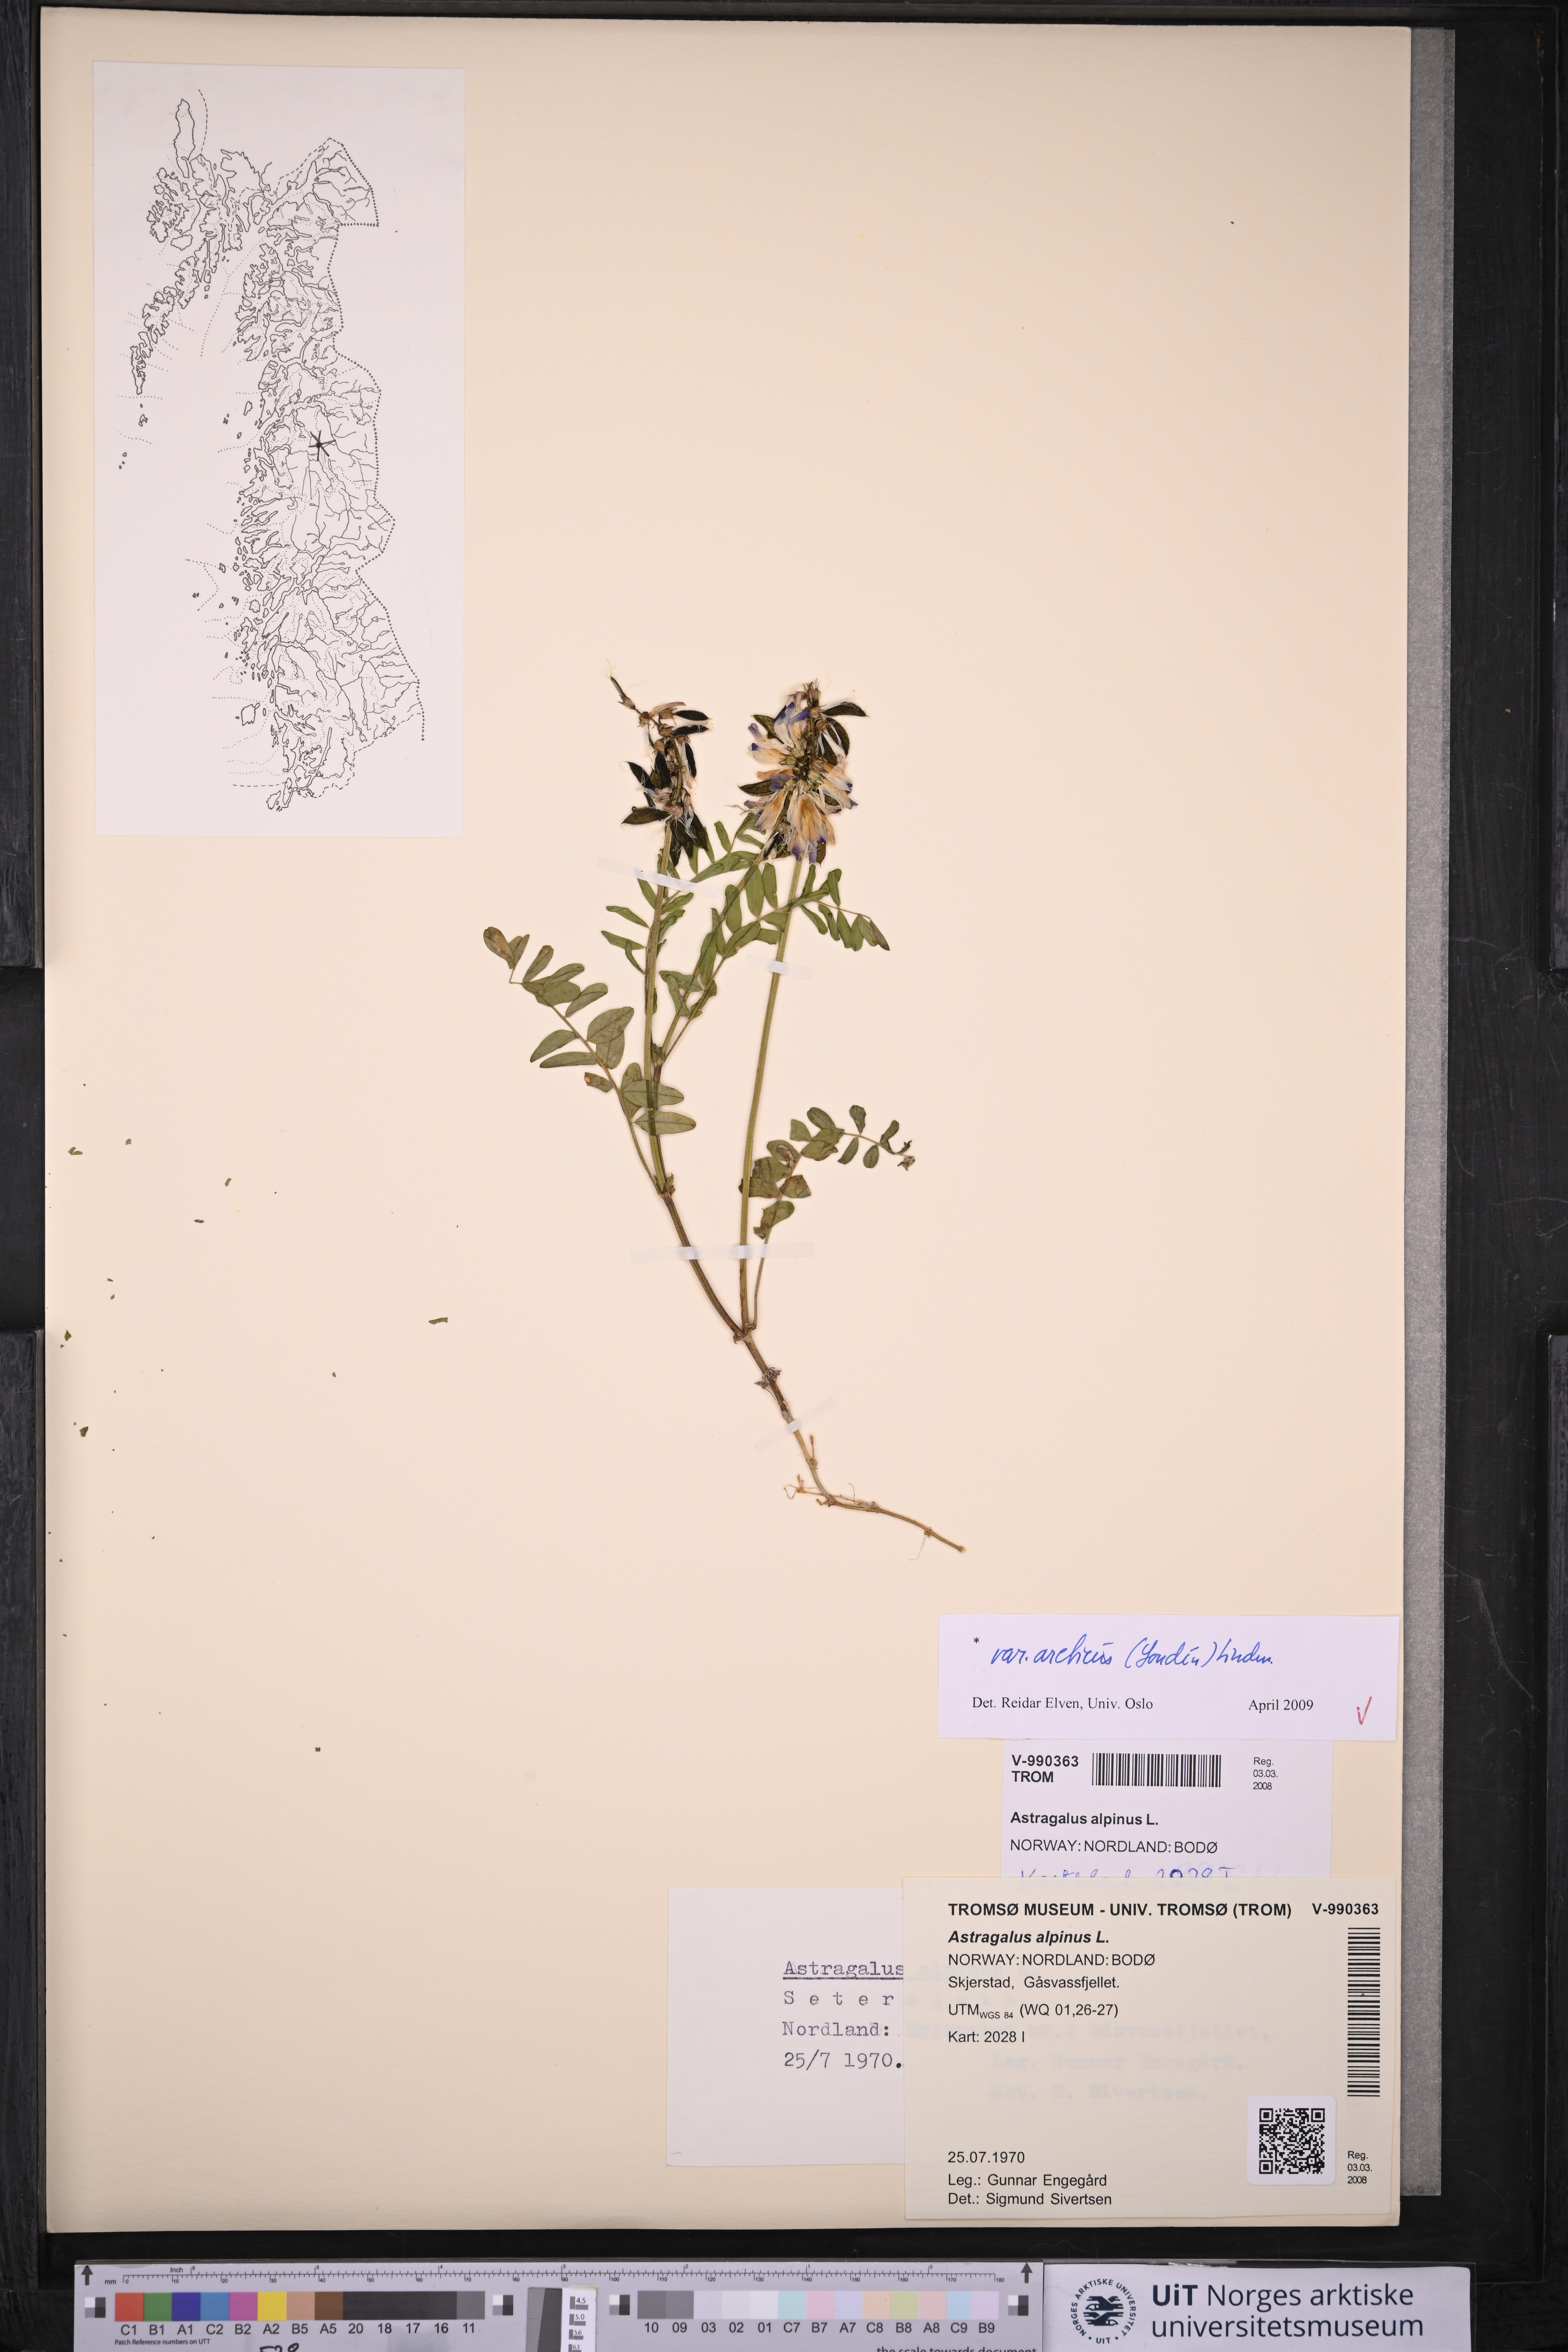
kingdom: Plantae
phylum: Tracheophyta
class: Magnoliopsida
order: Fabales
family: Fabaceae
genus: Astragalus
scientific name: Astragalus norvegicus
